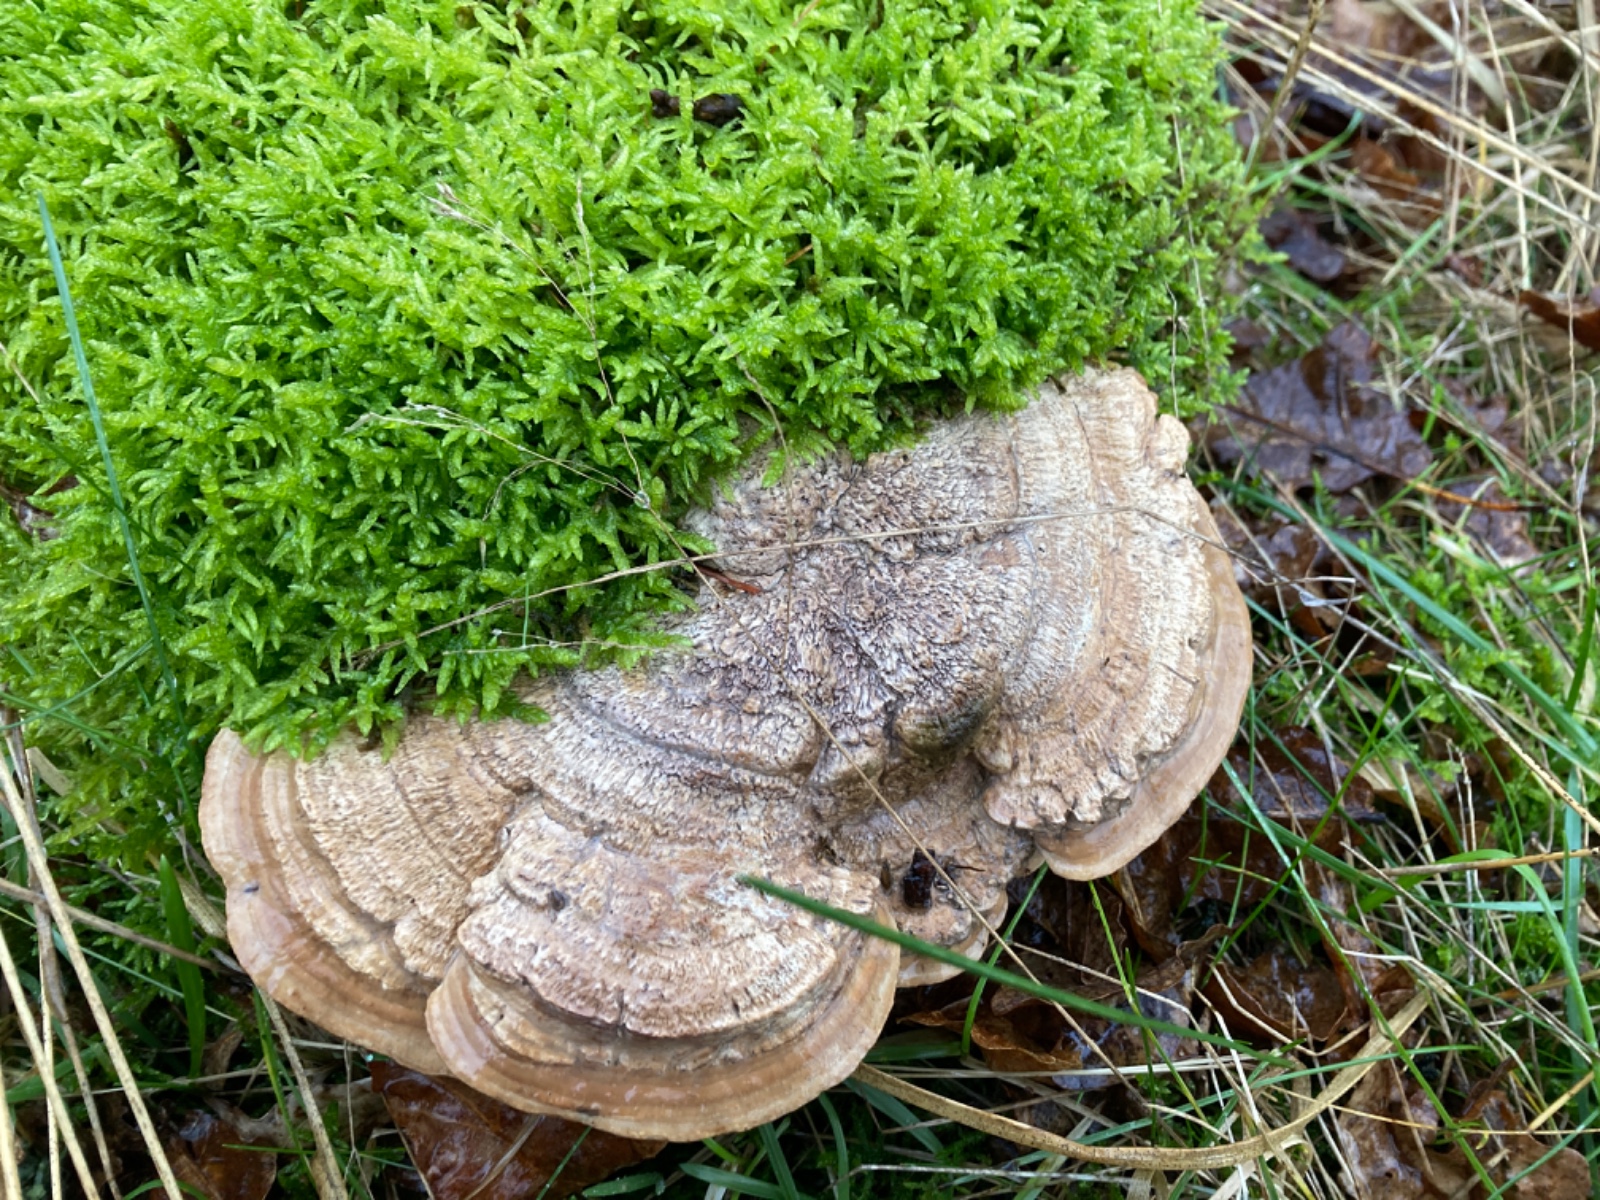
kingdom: Fungi
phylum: Basidiomycota
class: Agaricomycetes
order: Polyporales
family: Fomitopsidaceae
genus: Daedalea
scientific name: Daedalea quercina
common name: ege-labyrintsvamp
